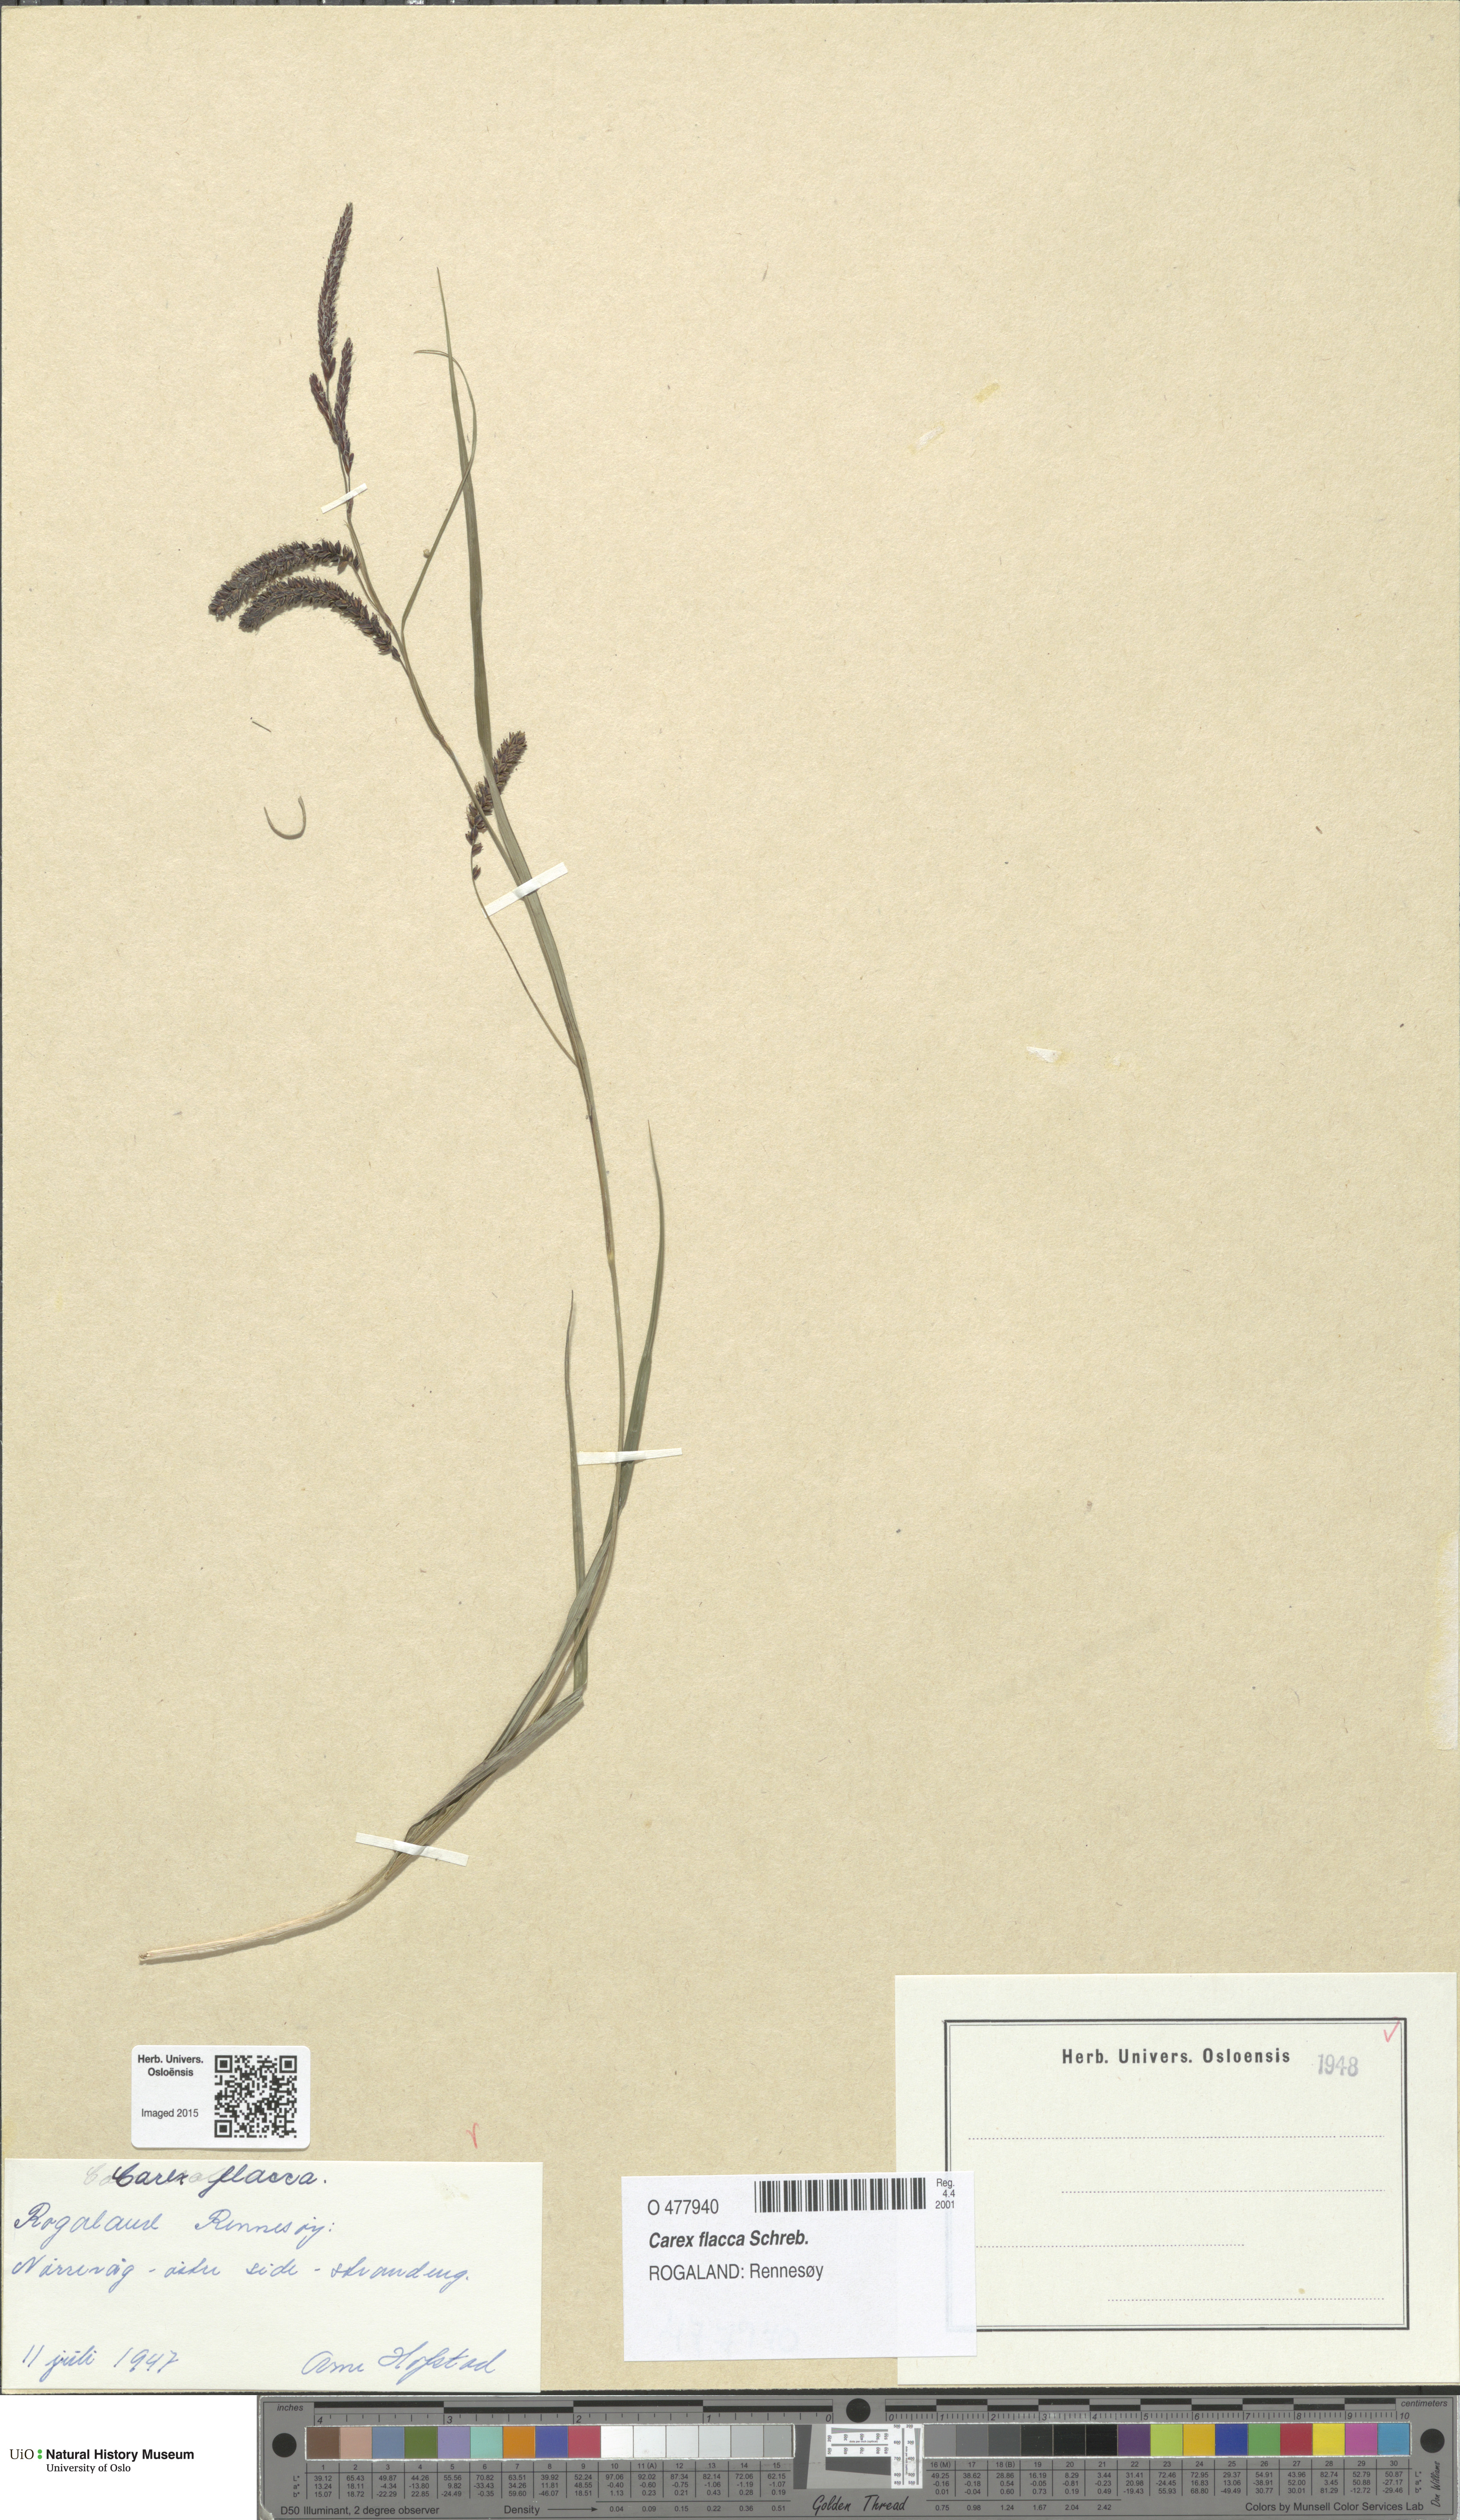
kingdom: Plantae
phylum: Tracheophyta
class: Liliopsida
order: Poales
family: Cyperaceae
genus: Carex
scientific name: Carex flacca
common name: Glaucous sedge
